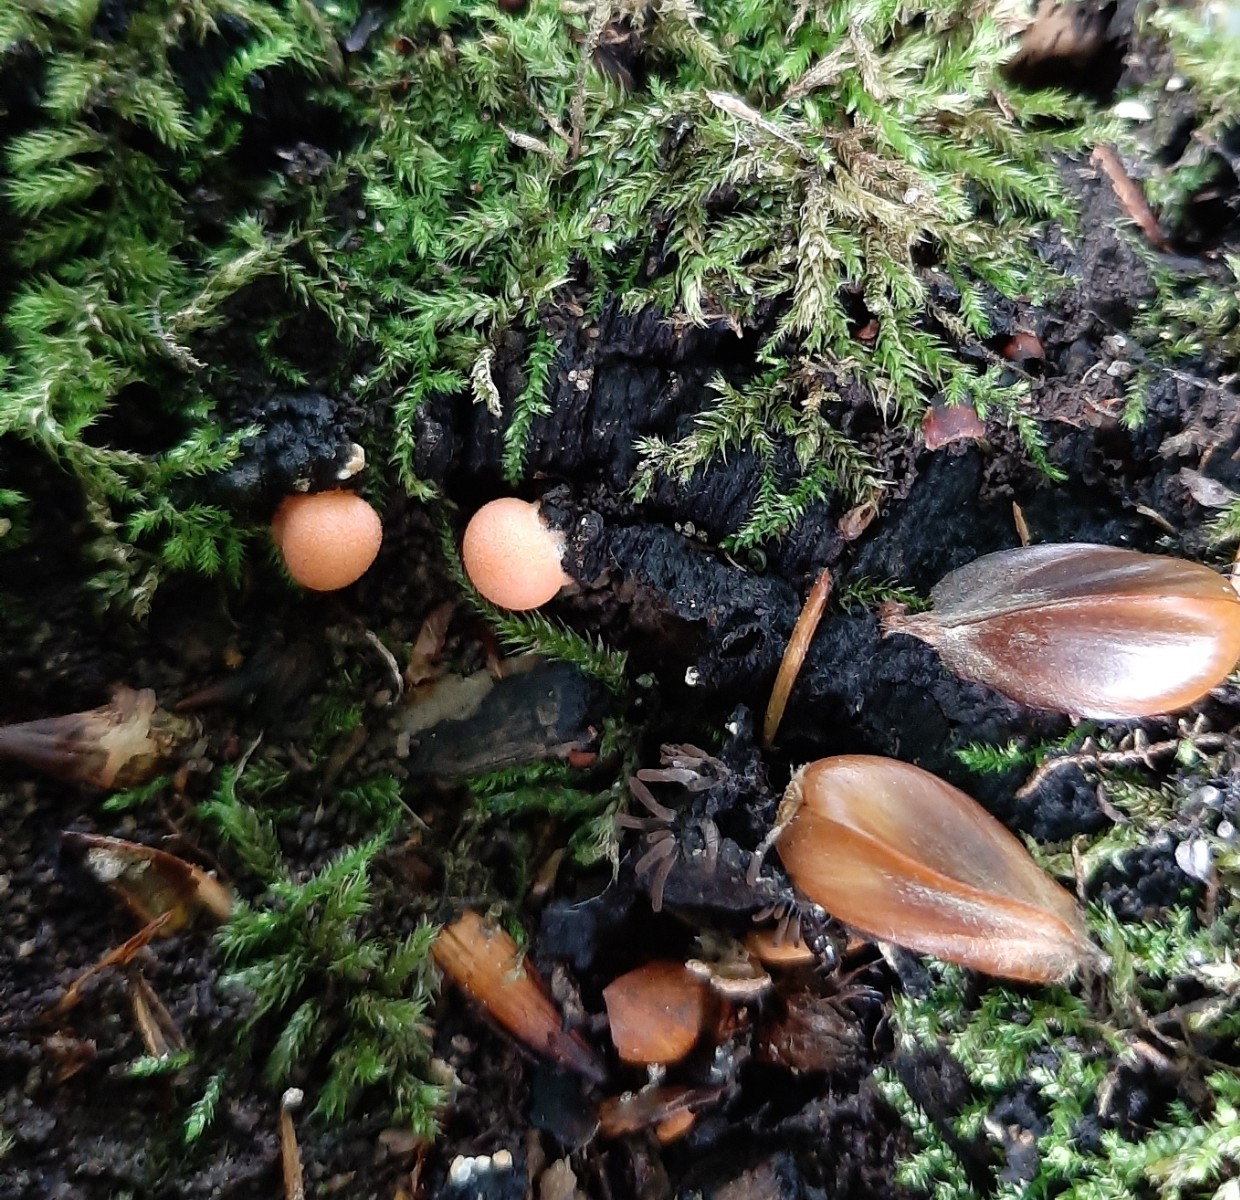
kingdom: Protozoa
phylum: Mycetozoa
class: Myxomycetes
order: Cribrariales
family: Tubiferaceae
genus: Lycogala
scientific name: Lycogala epidendrum
